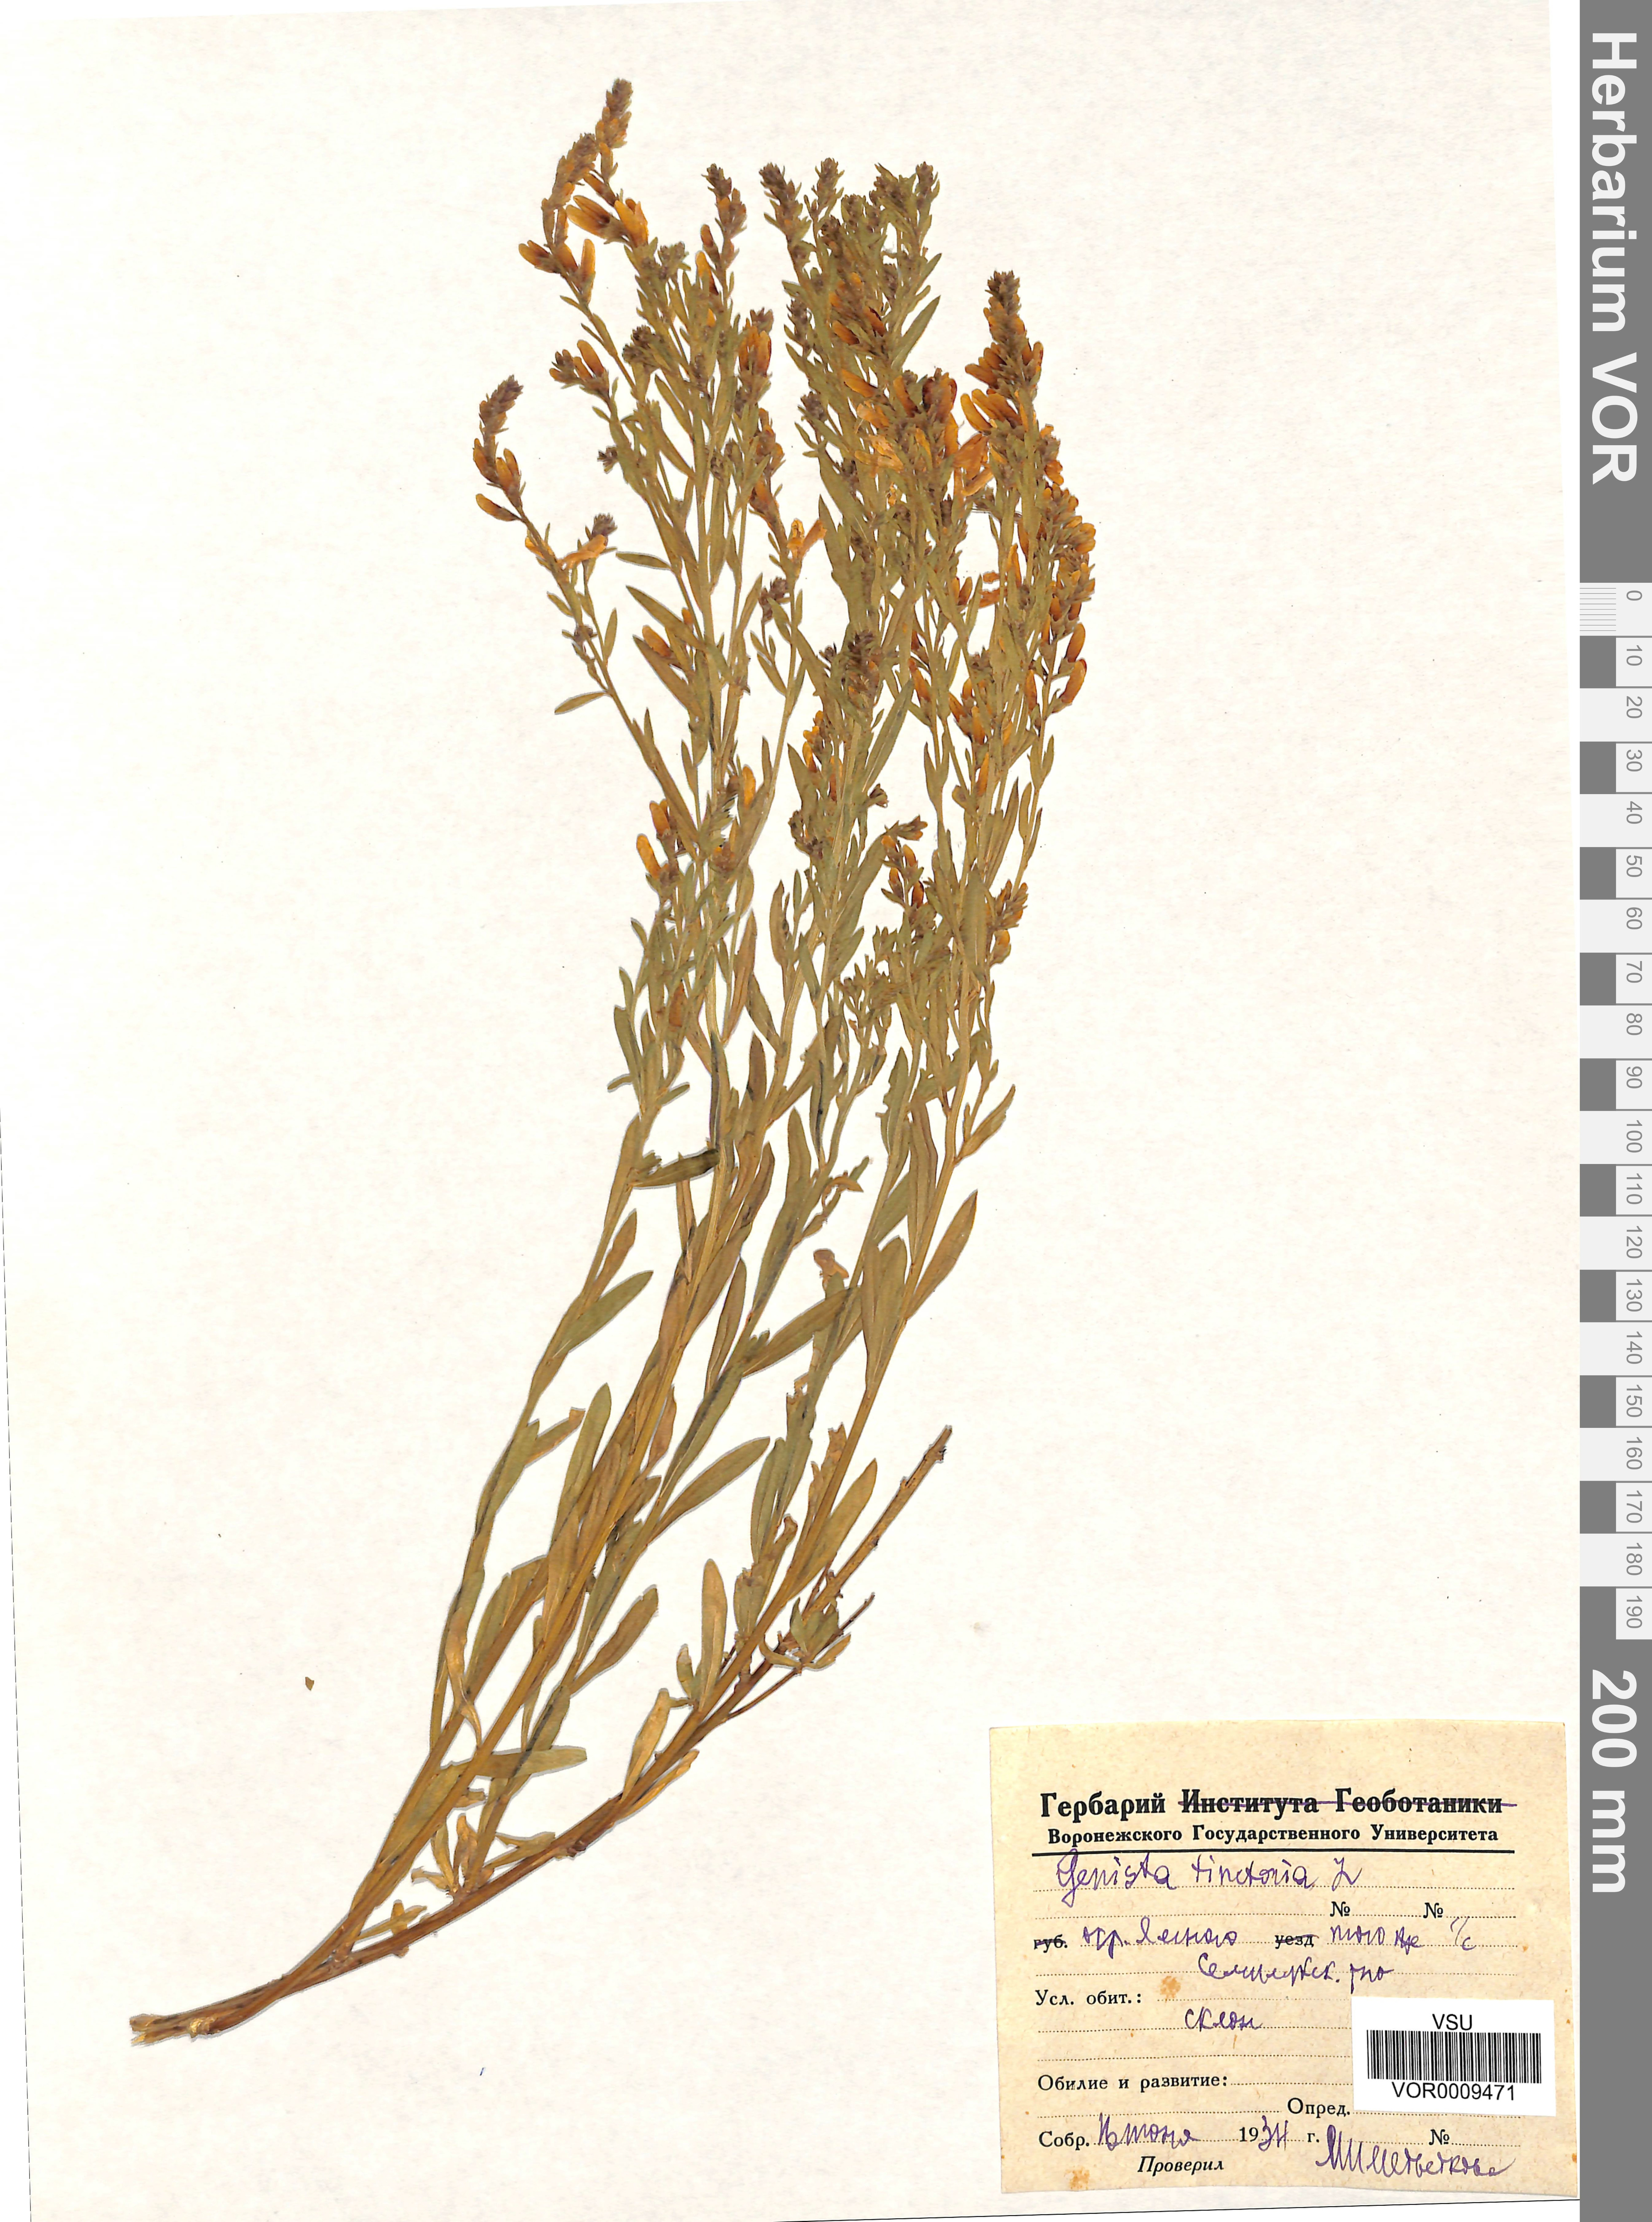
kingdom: Plantae
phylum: Tracheophyta
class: Magnoliopsida
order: Fabales
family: Fabaceae
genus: Genista
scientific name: Genista tinctoria
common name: Dyer's greenweed
